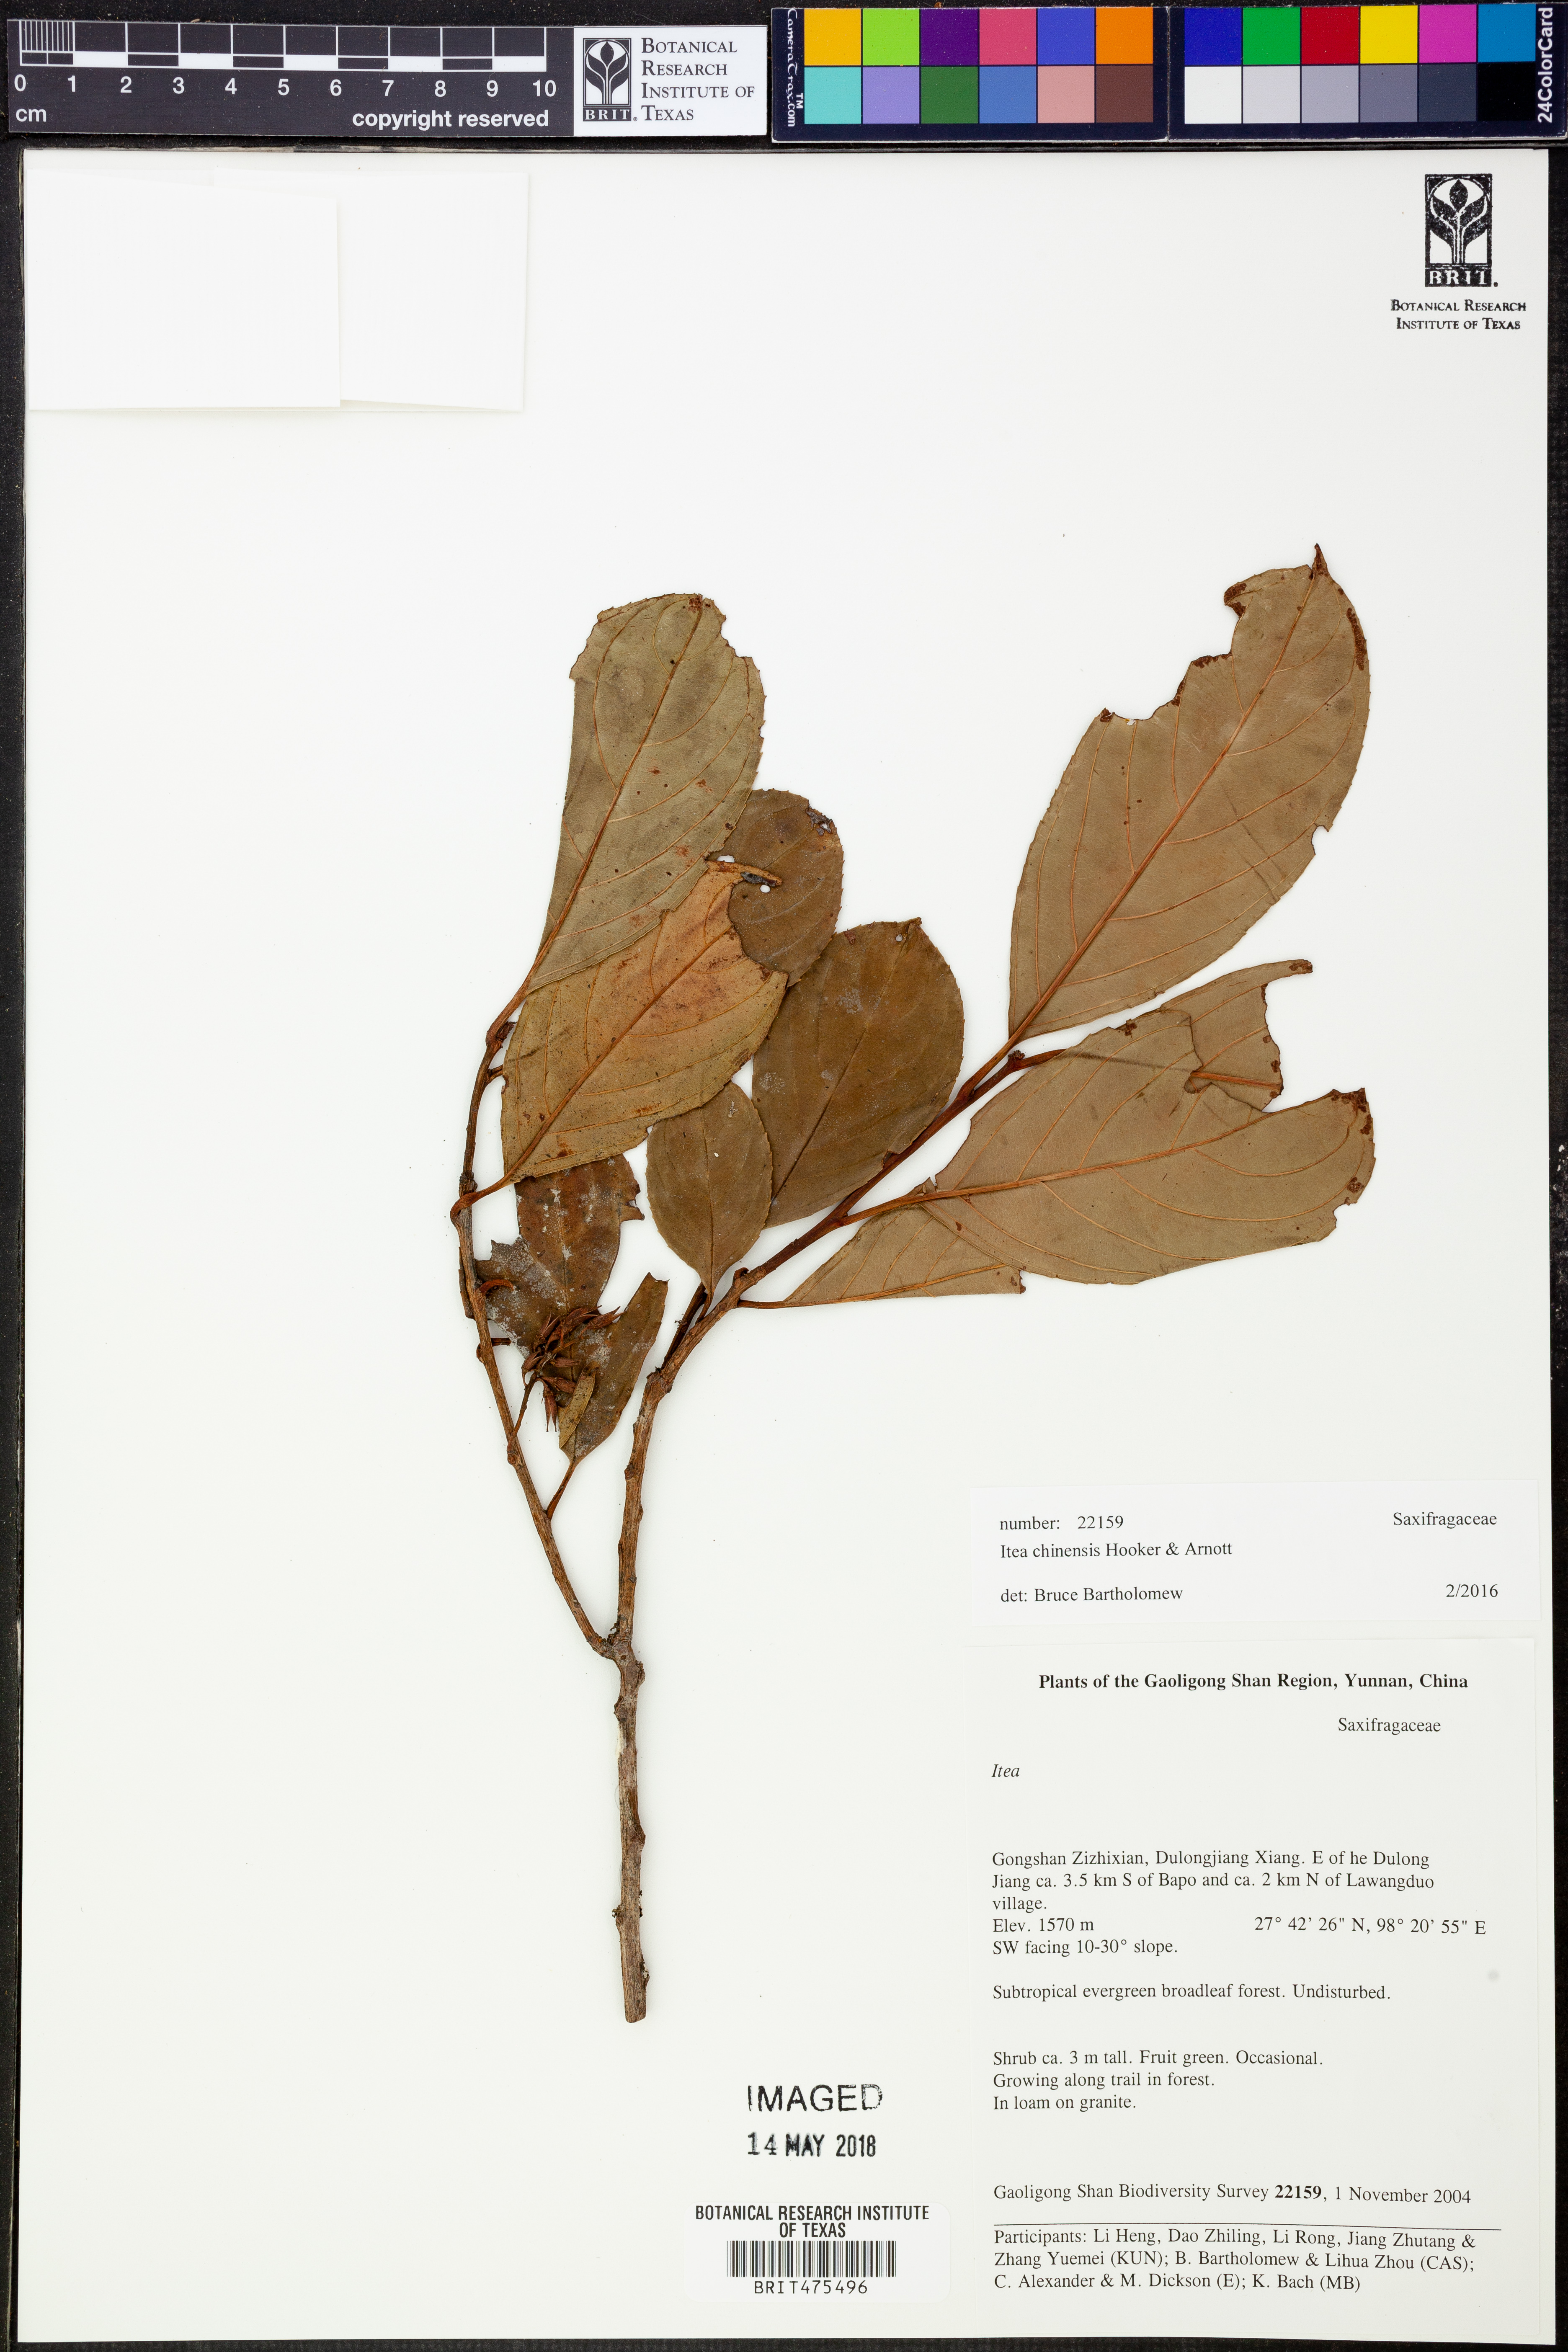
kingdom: Plantae
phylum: Tracheophyta
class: Magnoliopsida
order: Saxifragales
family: Iteaceae
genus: Itea
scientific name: Itea chinensis
